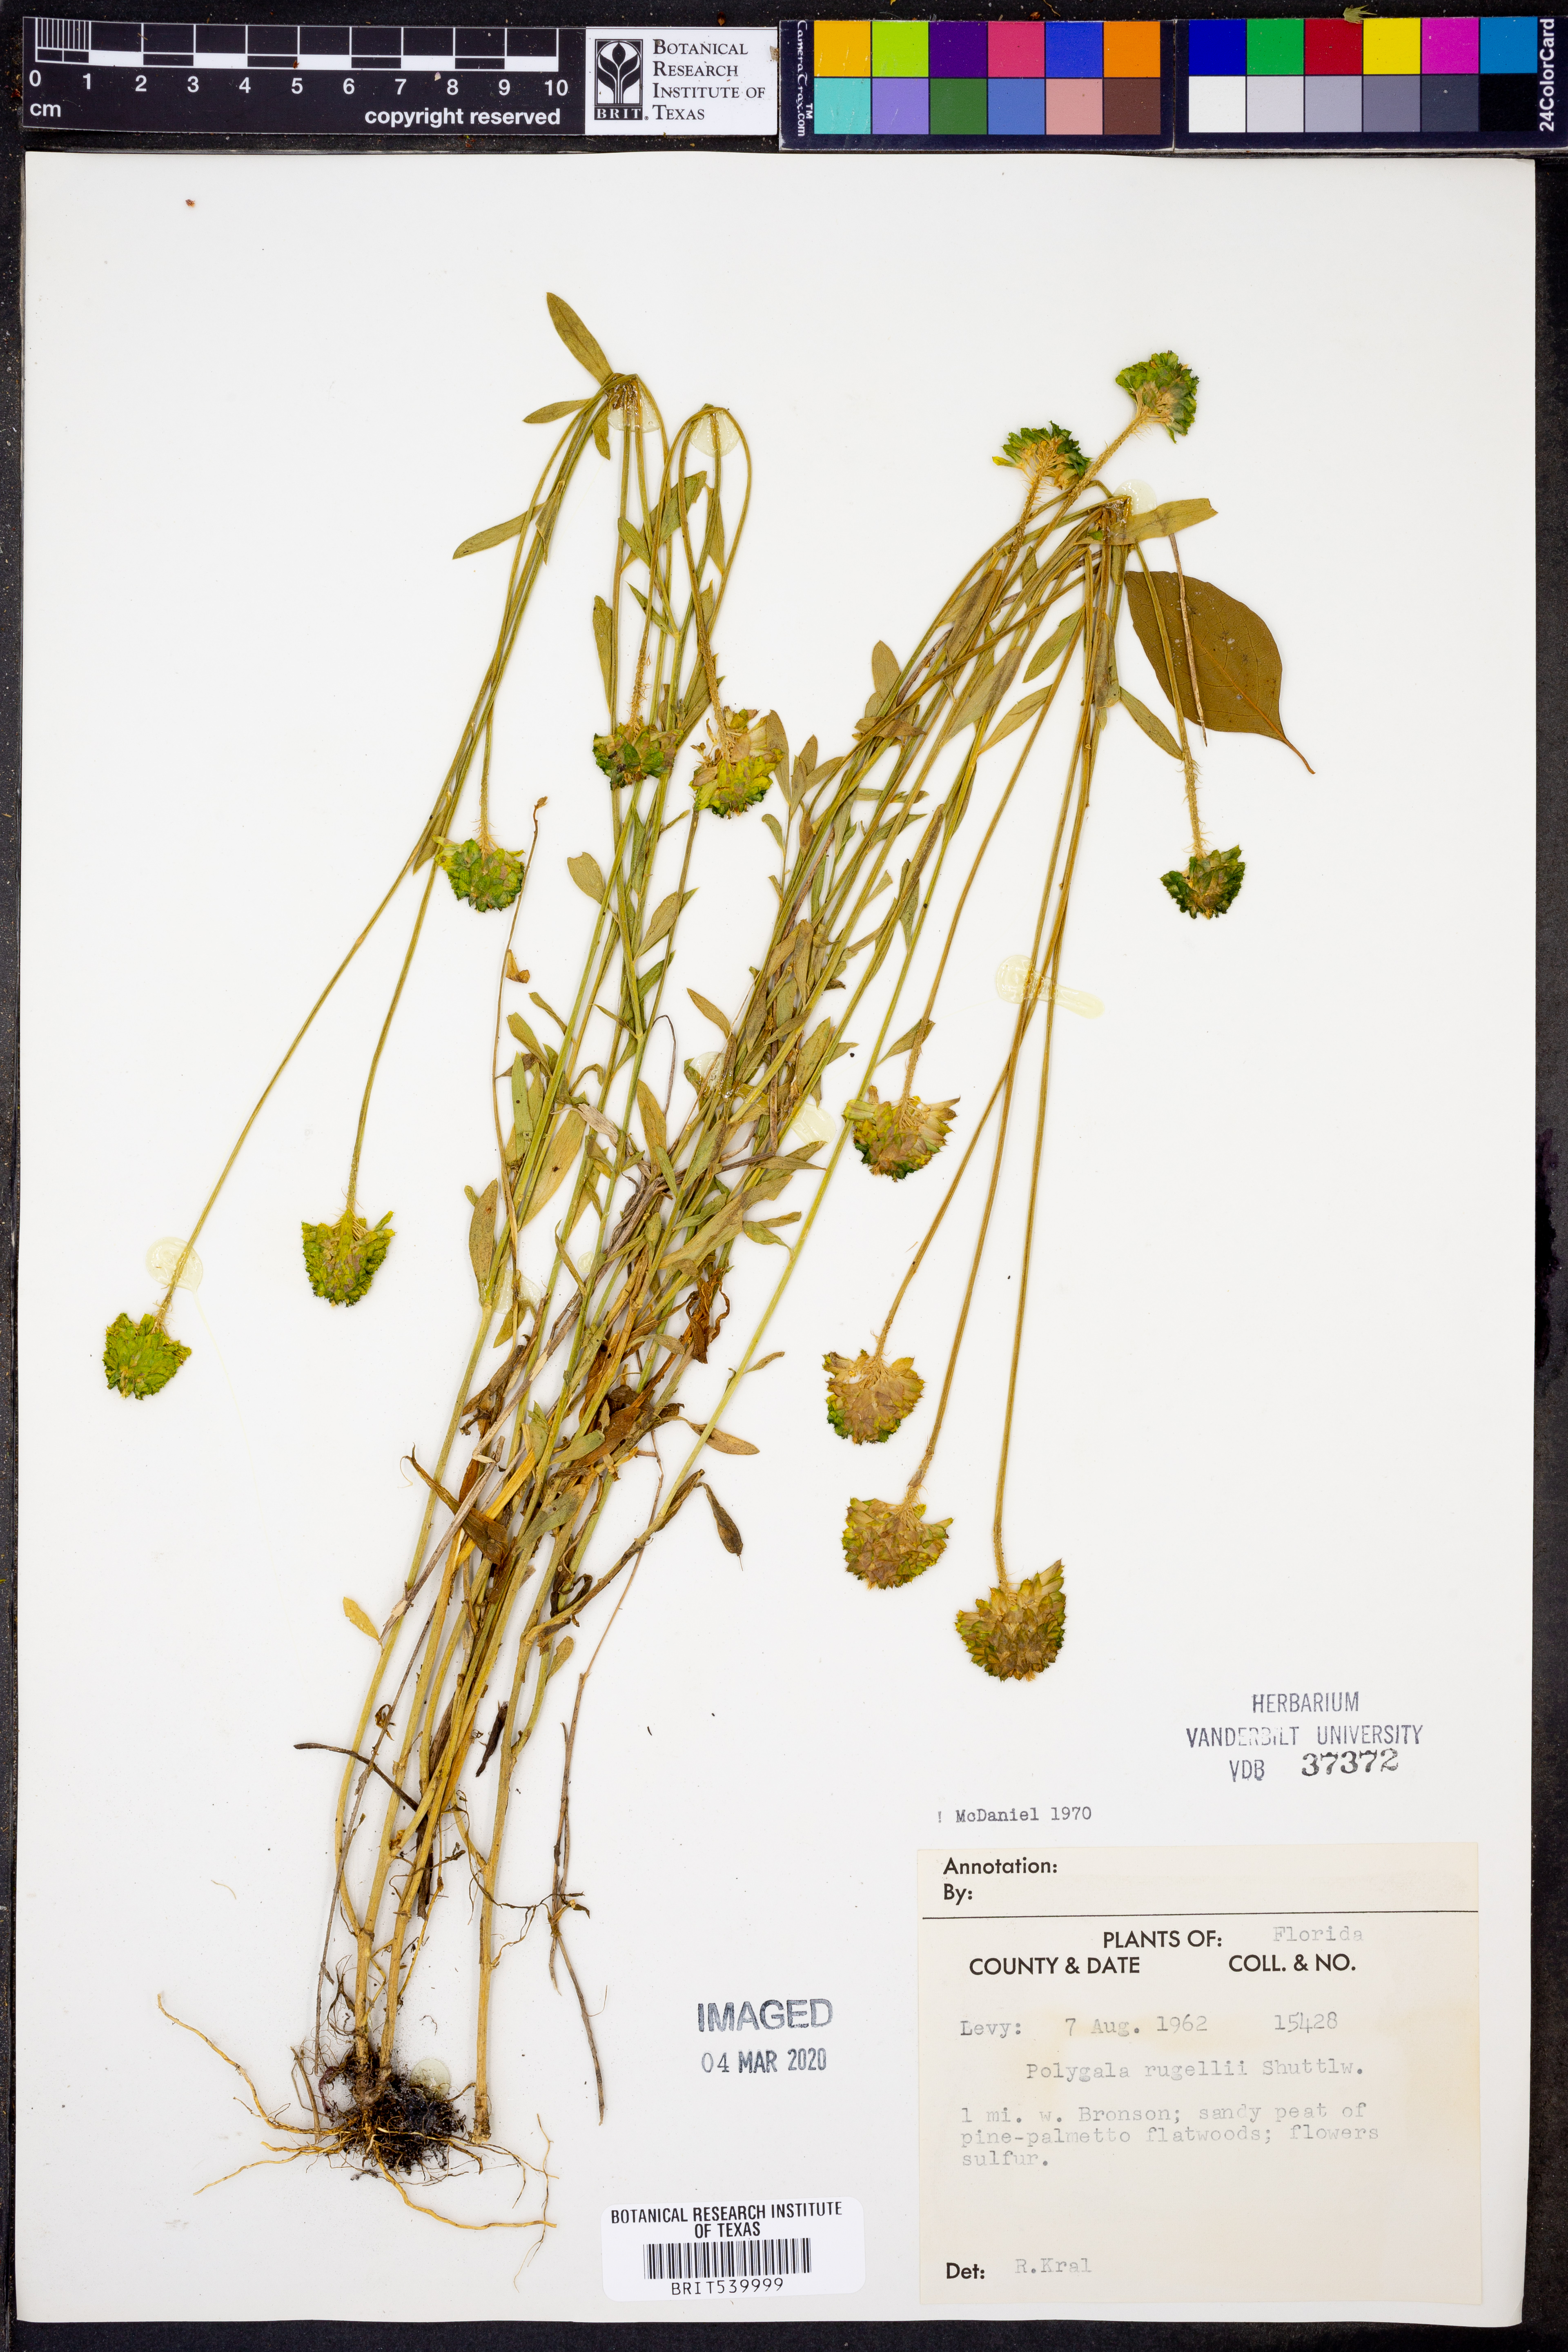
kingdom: Plantae
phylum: Tracheophyta
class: Magnoliopsida
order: Fabales
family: Polygalaceae
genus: Polygala
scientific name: Polygala rugelii
